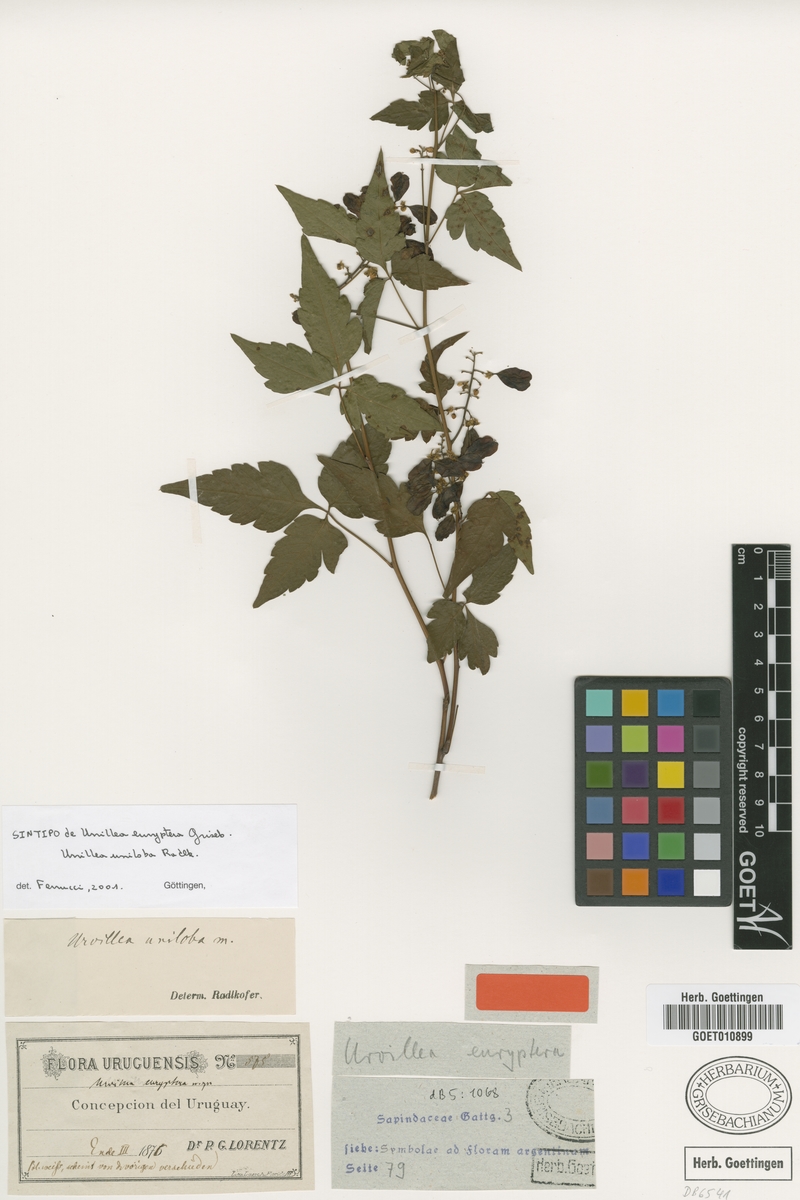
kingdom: Plantae
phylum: Tracheophyta
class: Magnoliopsida
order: Sapindales
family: Sapindaceae
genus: Urvillea
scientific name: Urvillea uniloba
